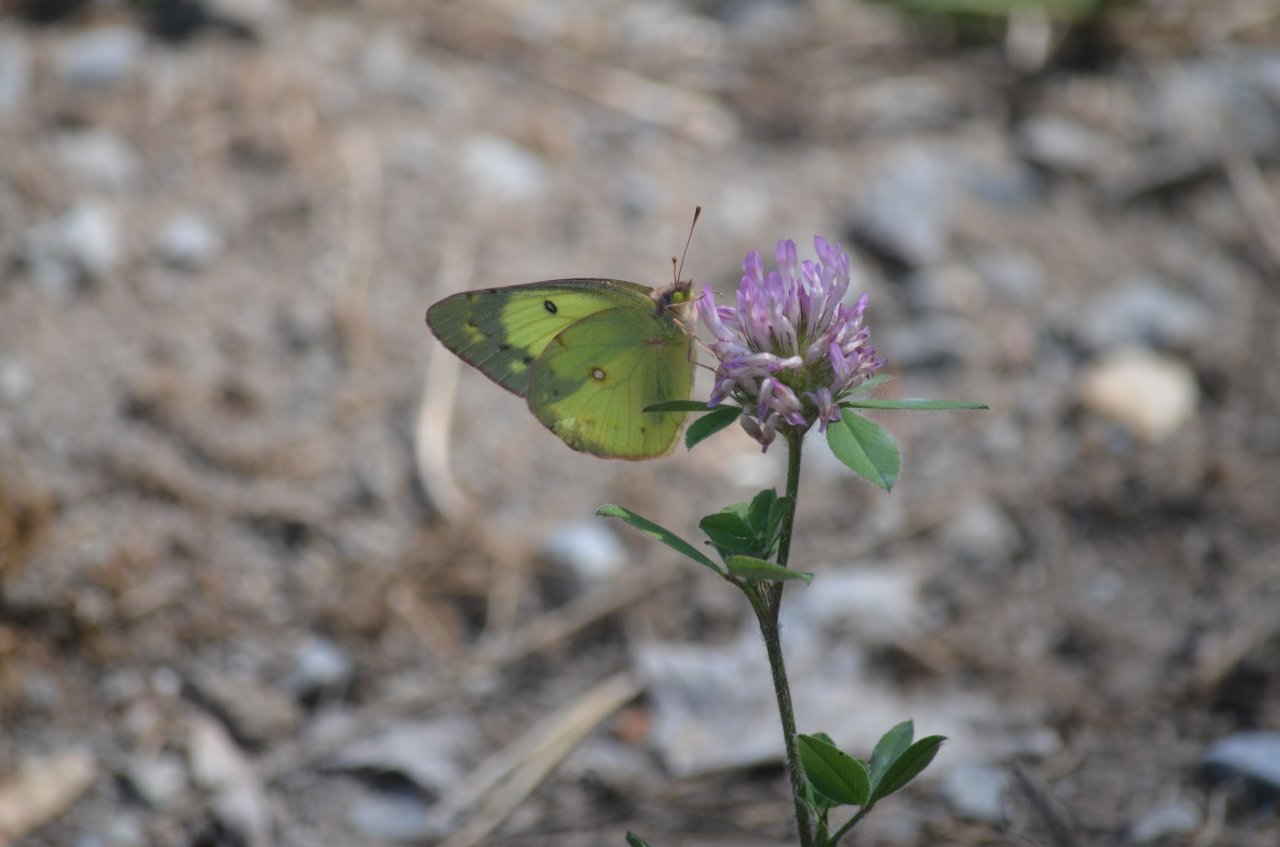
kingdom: Animalia
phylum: Arthropoda
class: Insecta
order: Lepidoptera
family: Pieridae
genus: Colias
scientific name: Colias philodice
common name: Clouded Sulphur
